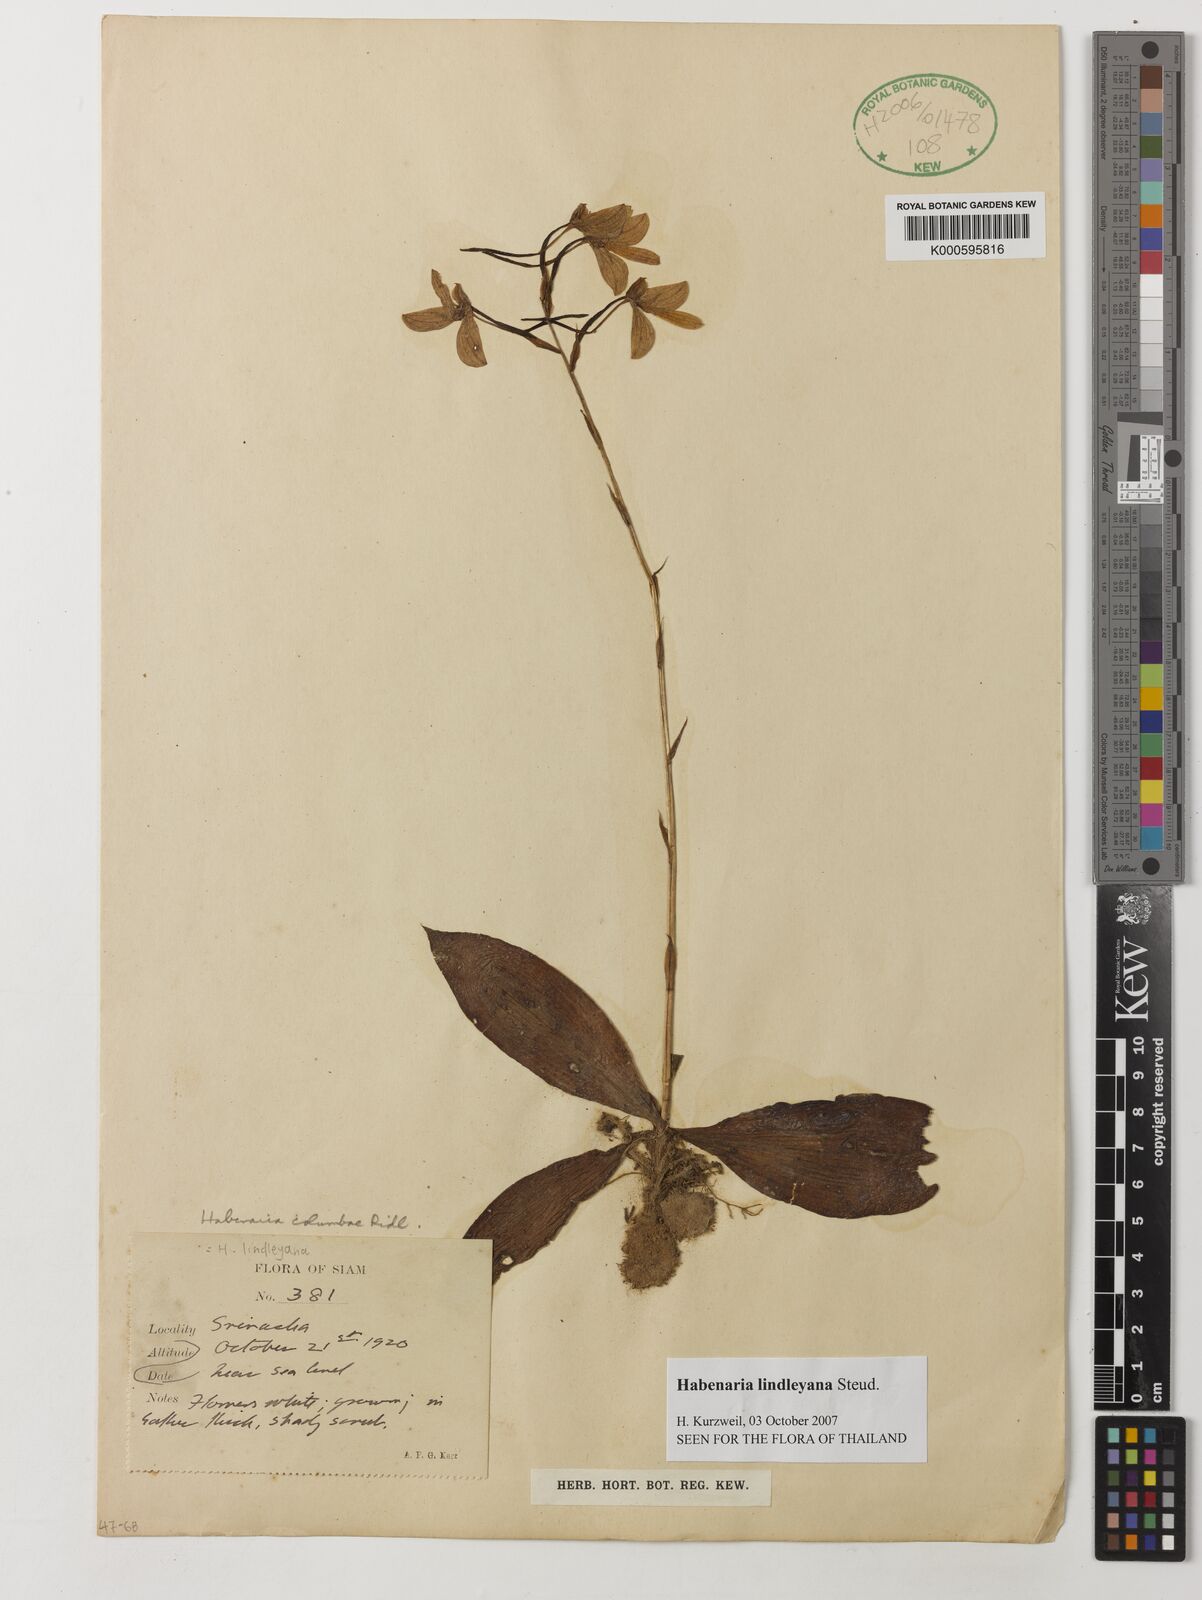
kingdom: Plantae
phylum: Tracheophyta
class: Liliopsida
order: Asparagales
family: Orchidaceae
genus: Habenaria
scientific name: Habenaria lindleyana
